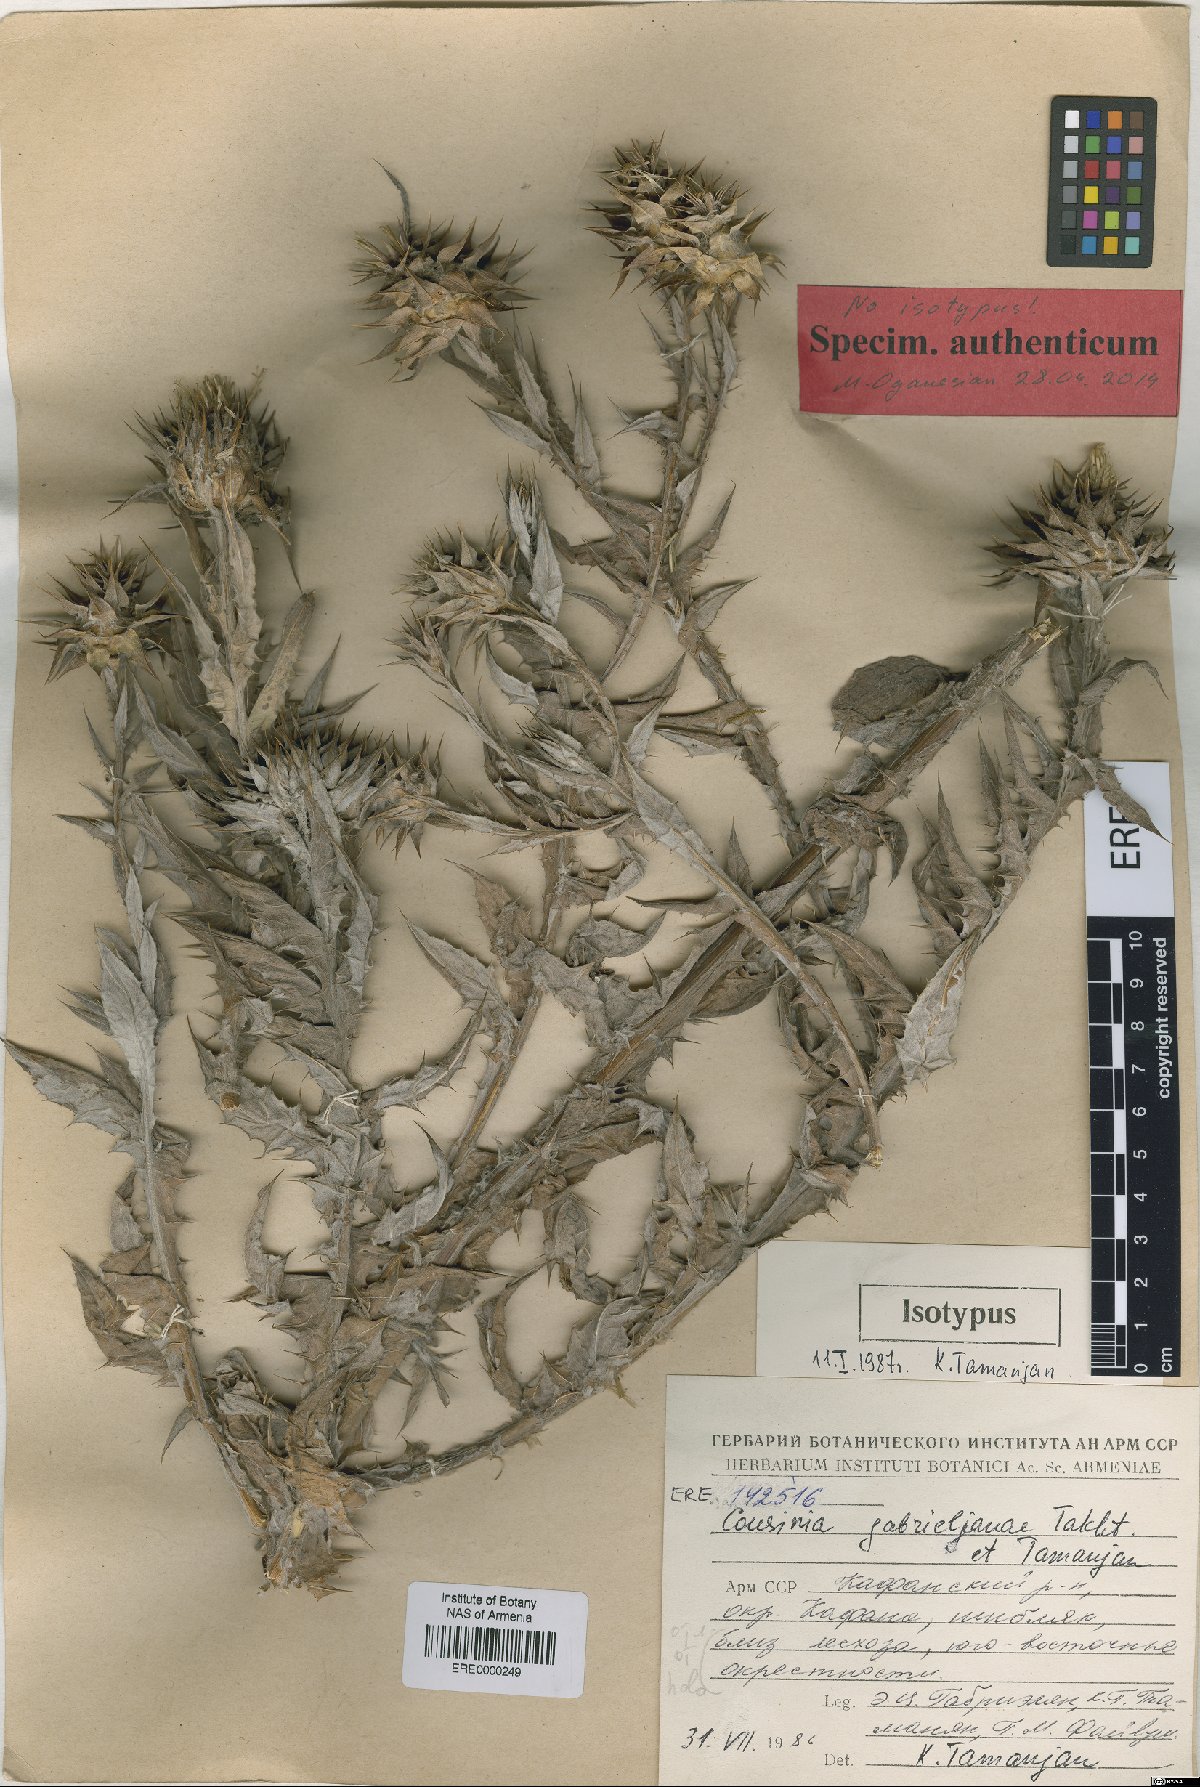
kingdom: Plantae
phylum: Tracheophyta
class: Magnoliopsida
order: Asterales
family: Asteraceae
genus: Cousinia
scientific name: Cousinia macrocephala
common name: Macrocephalous cousinia
